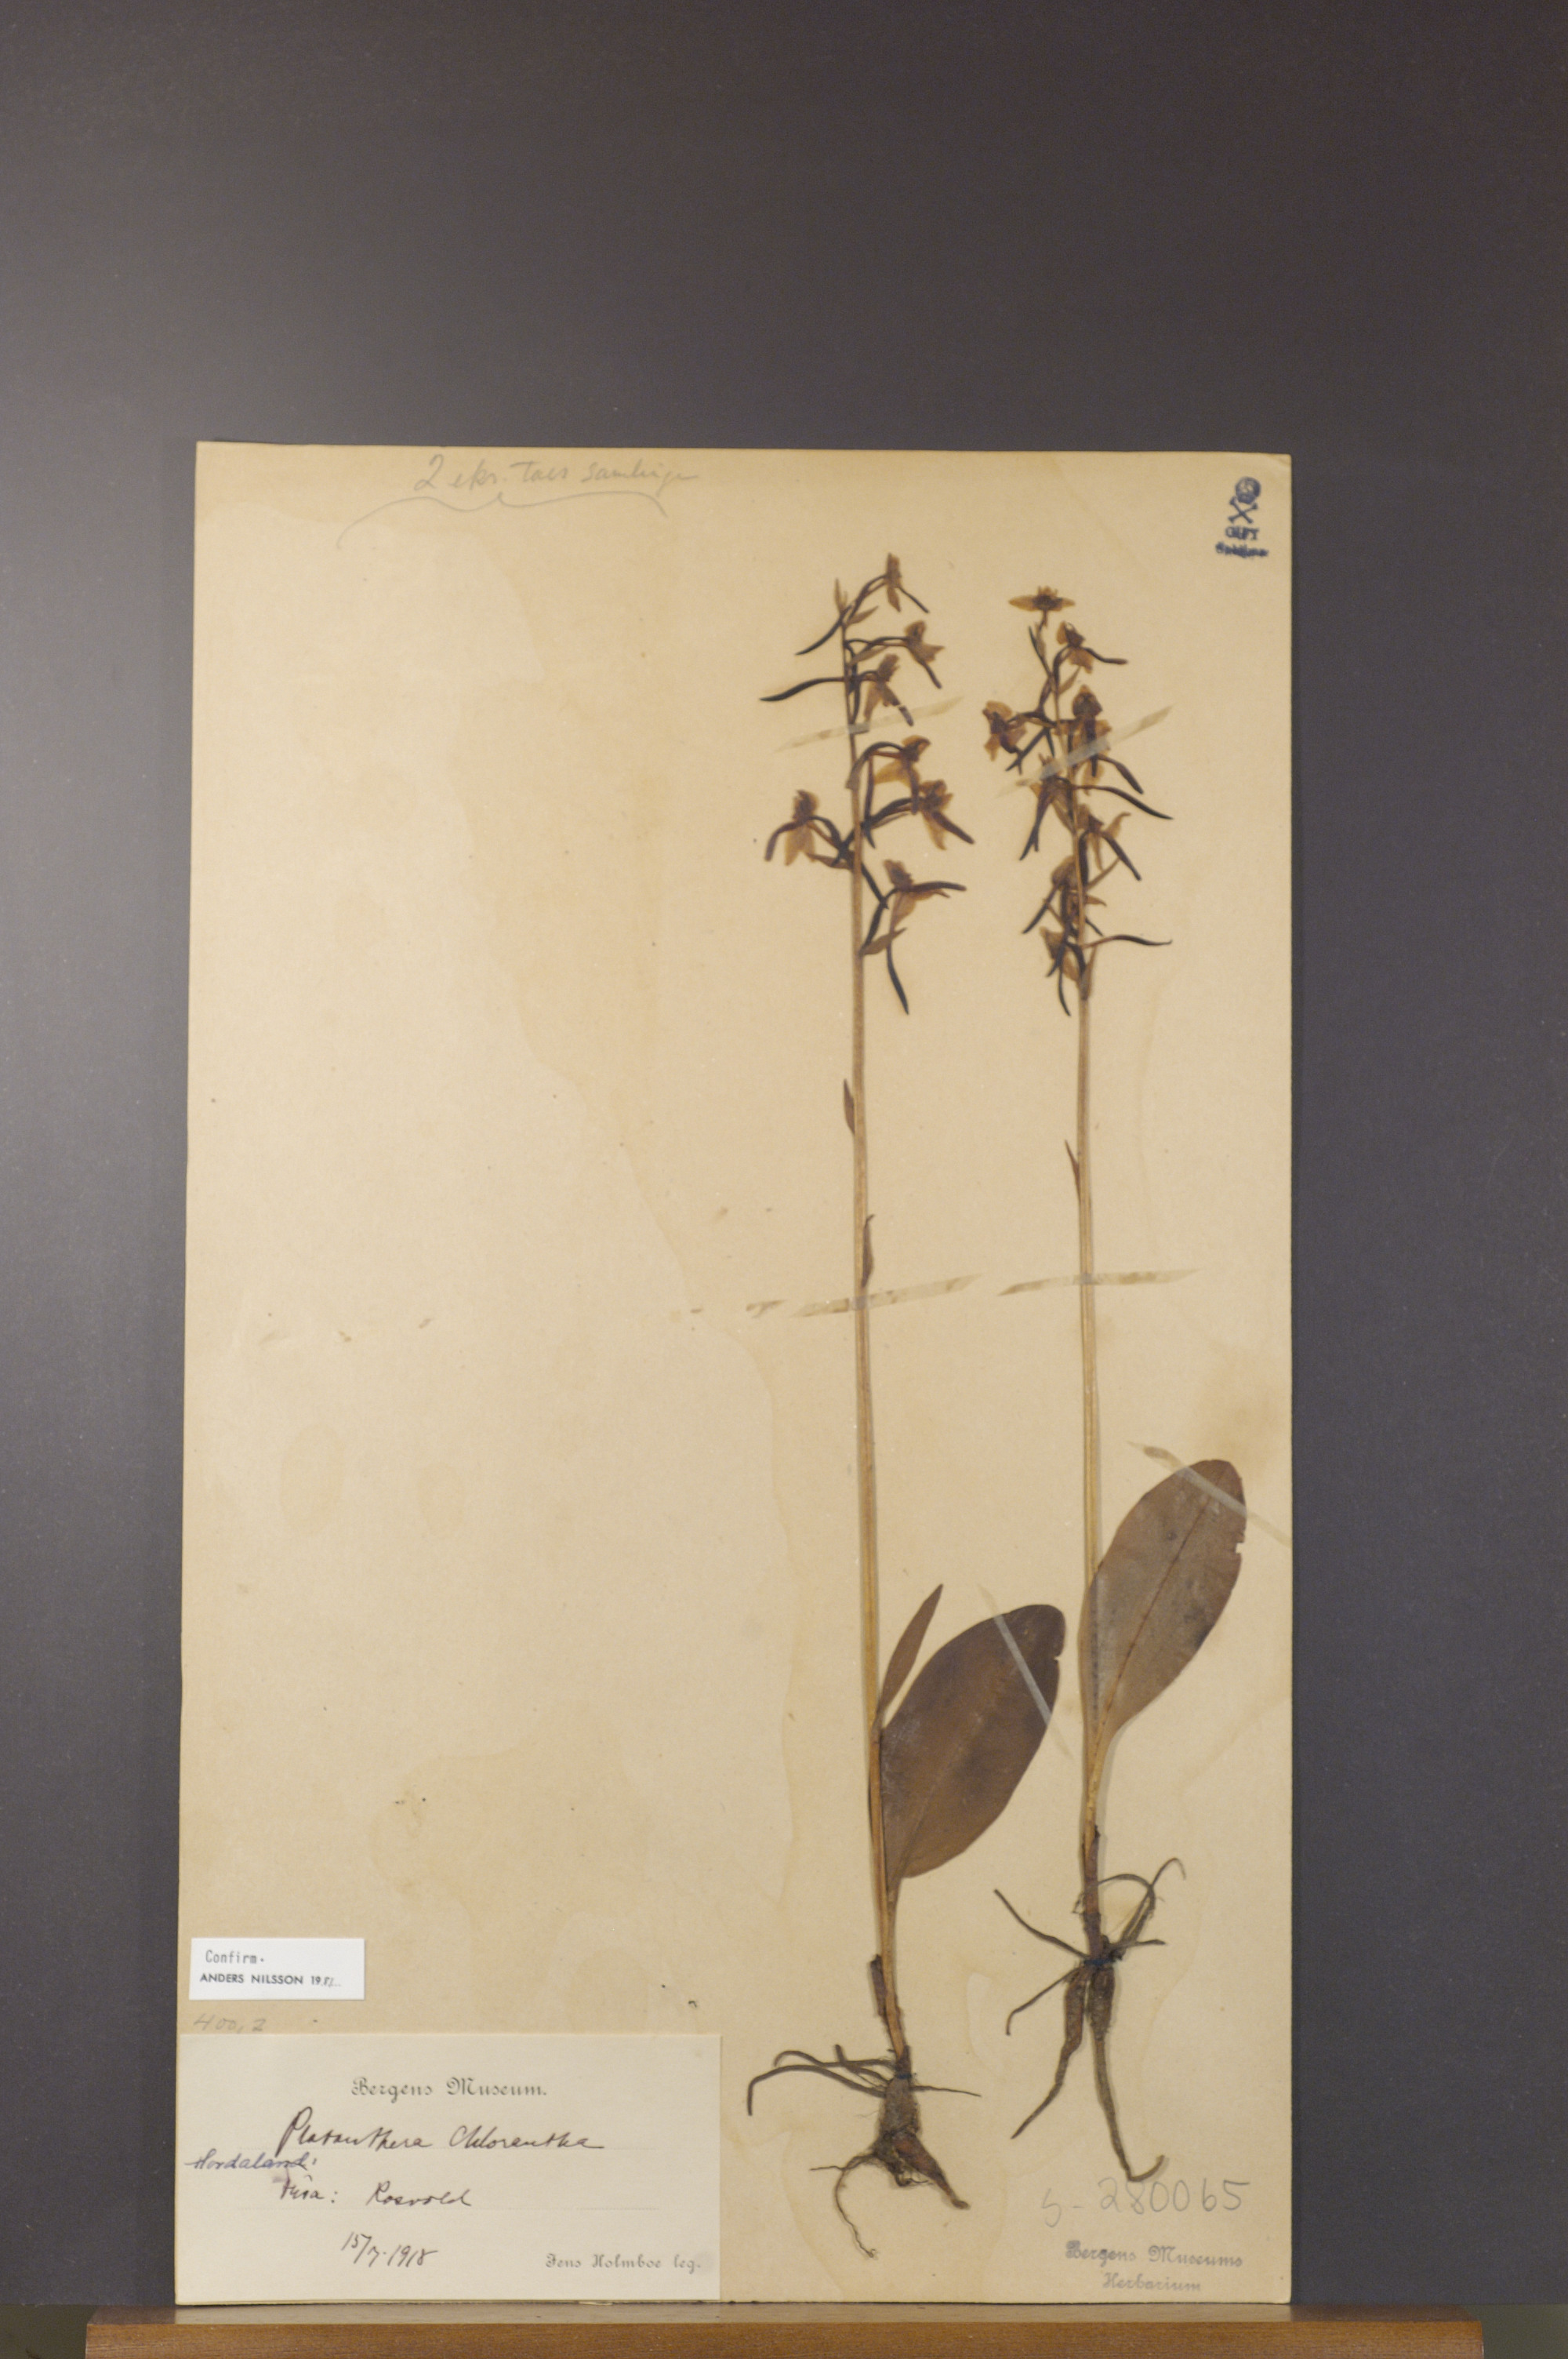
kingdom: Plantae
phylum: Tracheophyta
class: Liliopsida
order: Asparagales
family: Orchidaceae
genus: Platanthera
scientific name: Platanthera chlorantha
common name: Greater butterfly-orchid
